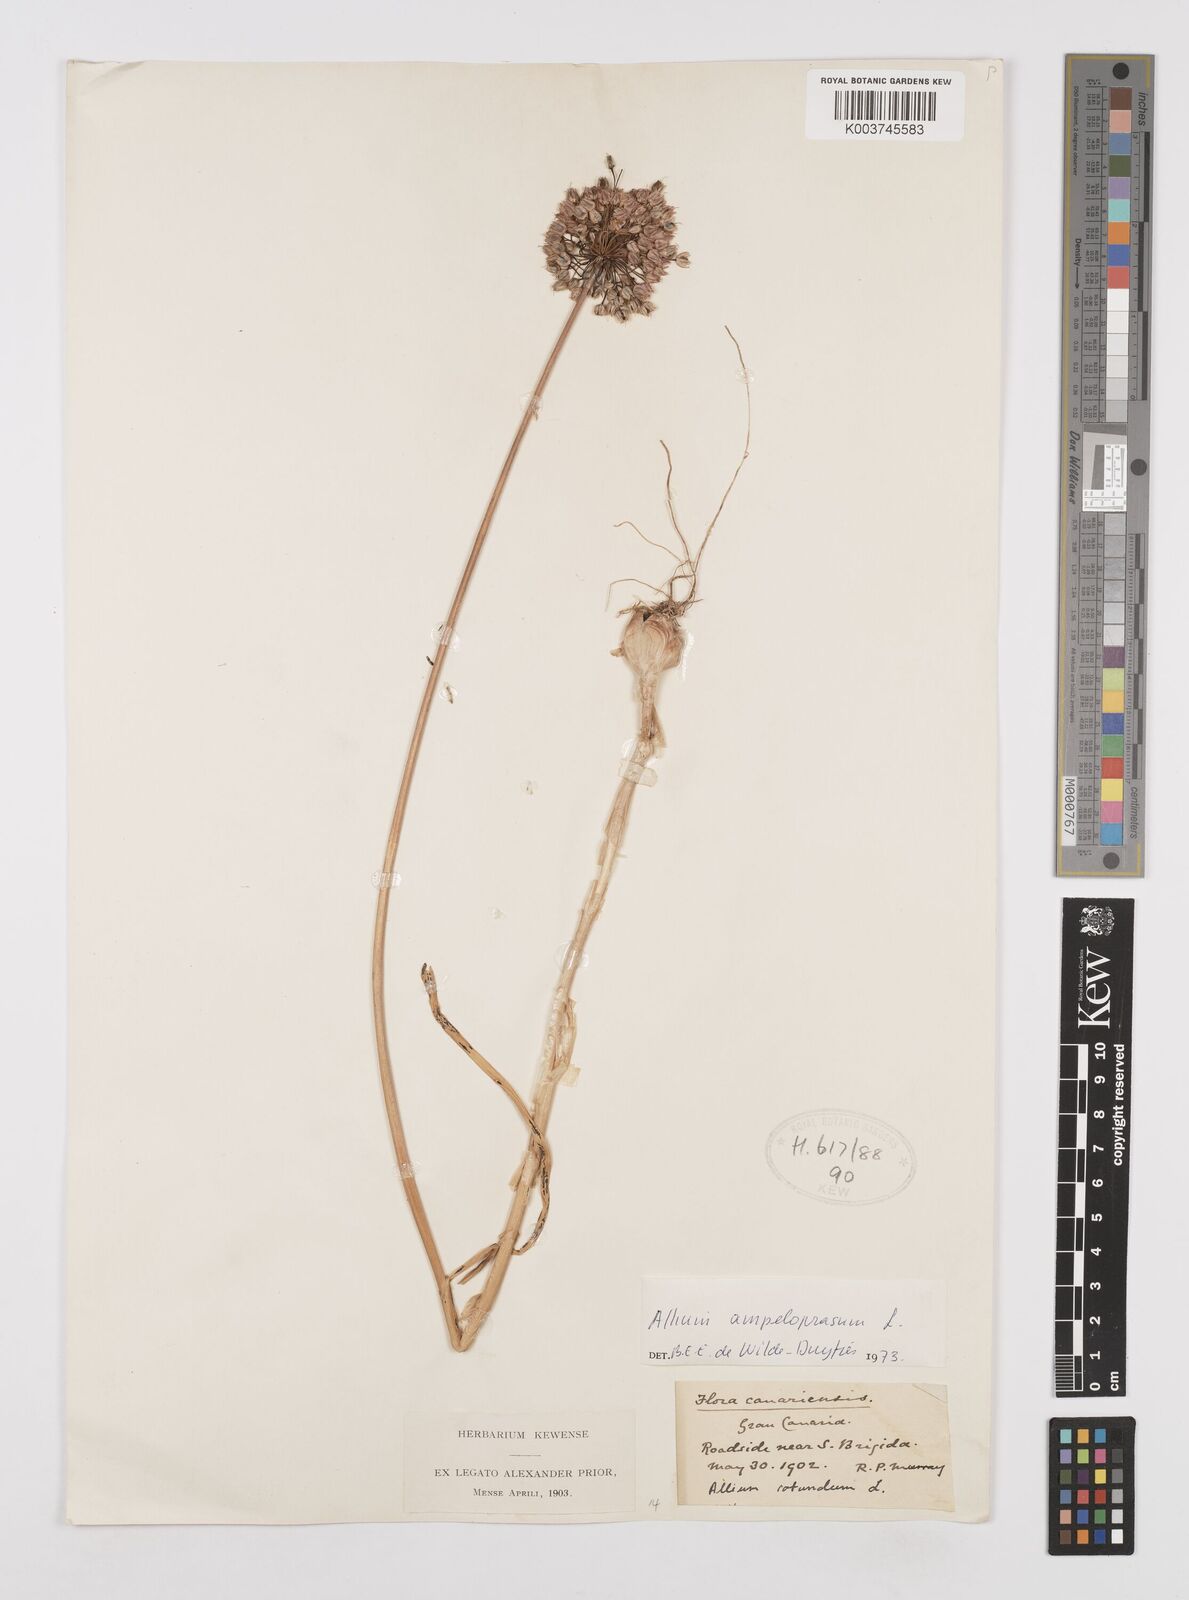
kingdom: Plantae
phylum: Tracheophyta
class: Liliopsida
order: Asparagales
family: Amaryllidaceae
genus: Allium
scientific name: Allium rotundum
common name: Sand leek
